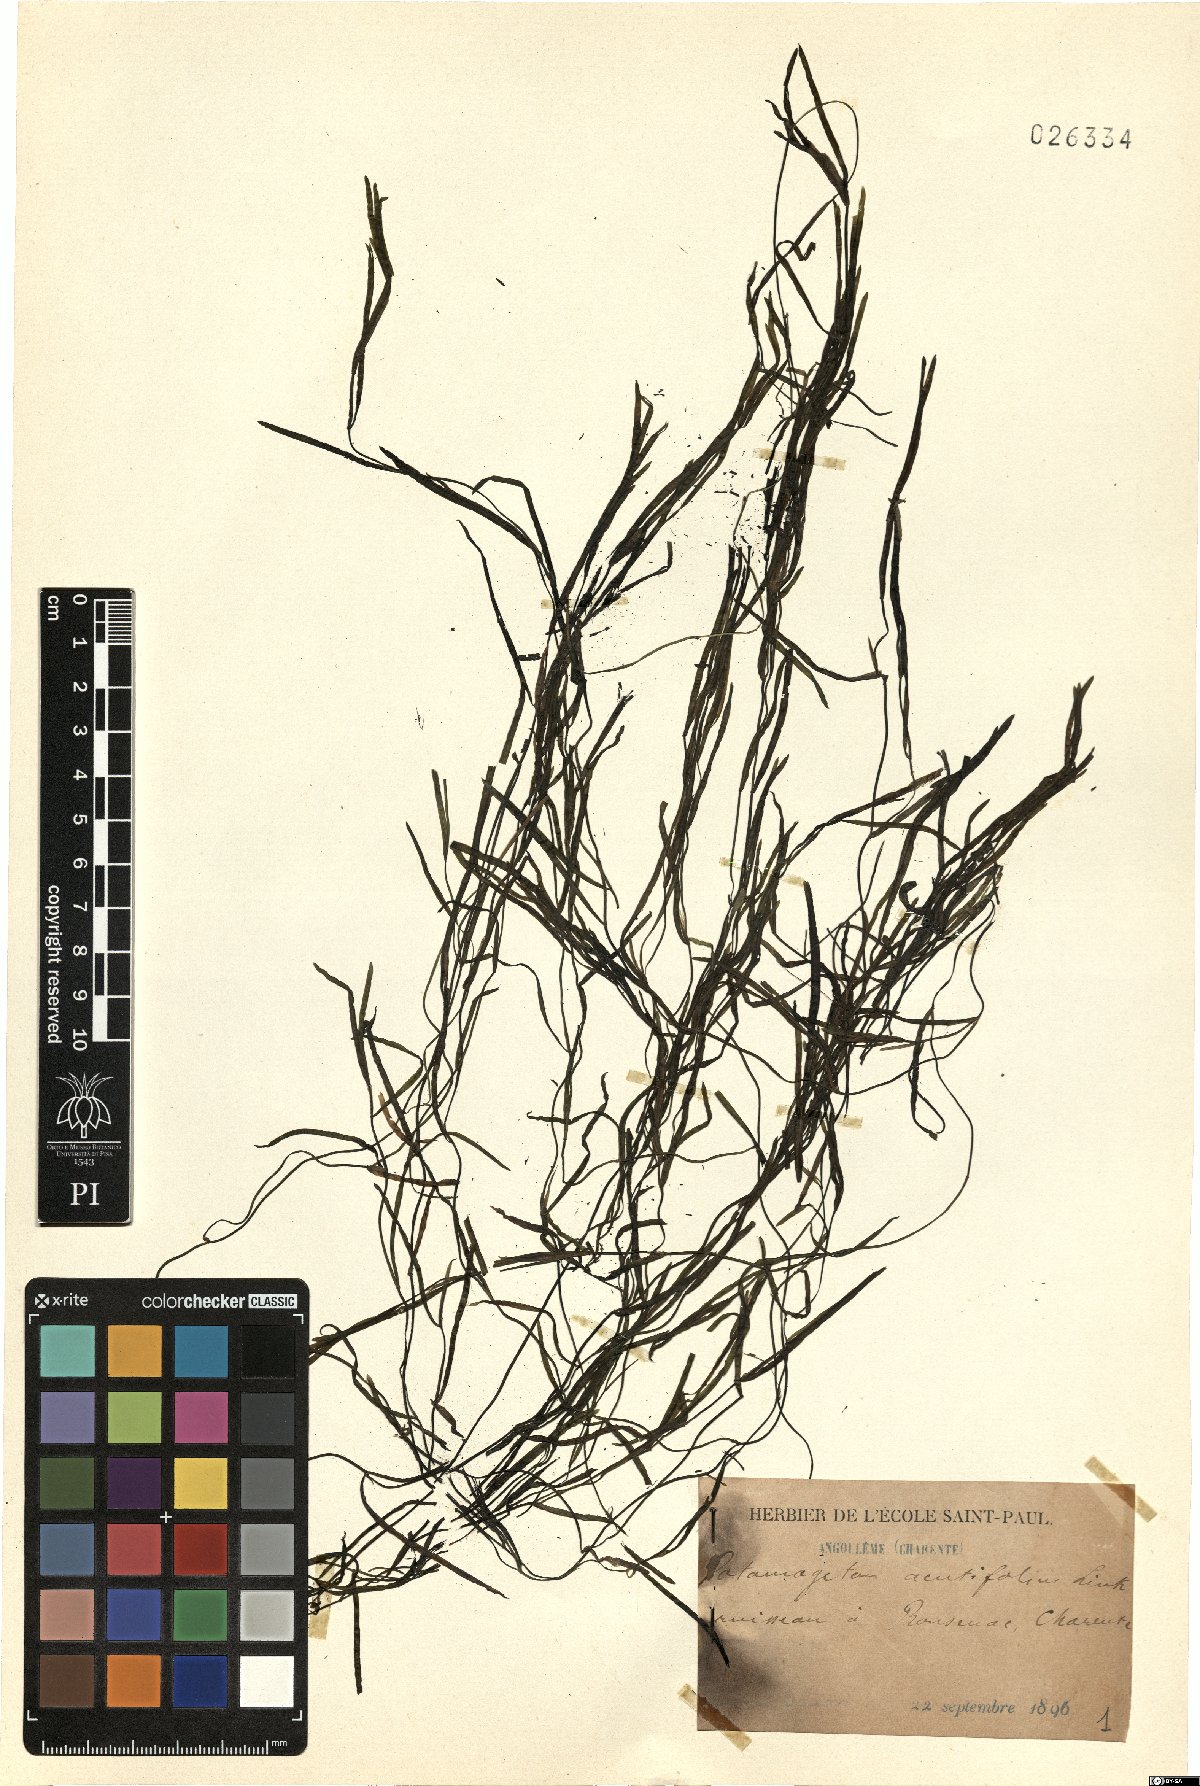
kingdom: Plantae
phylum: Tracheophyta
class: Liliopsida
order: Alismatales
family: Potamogetonaceae
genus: Potamogeton
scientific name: Potamogeton acutifolius
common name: Sharp-leaved pondweed
